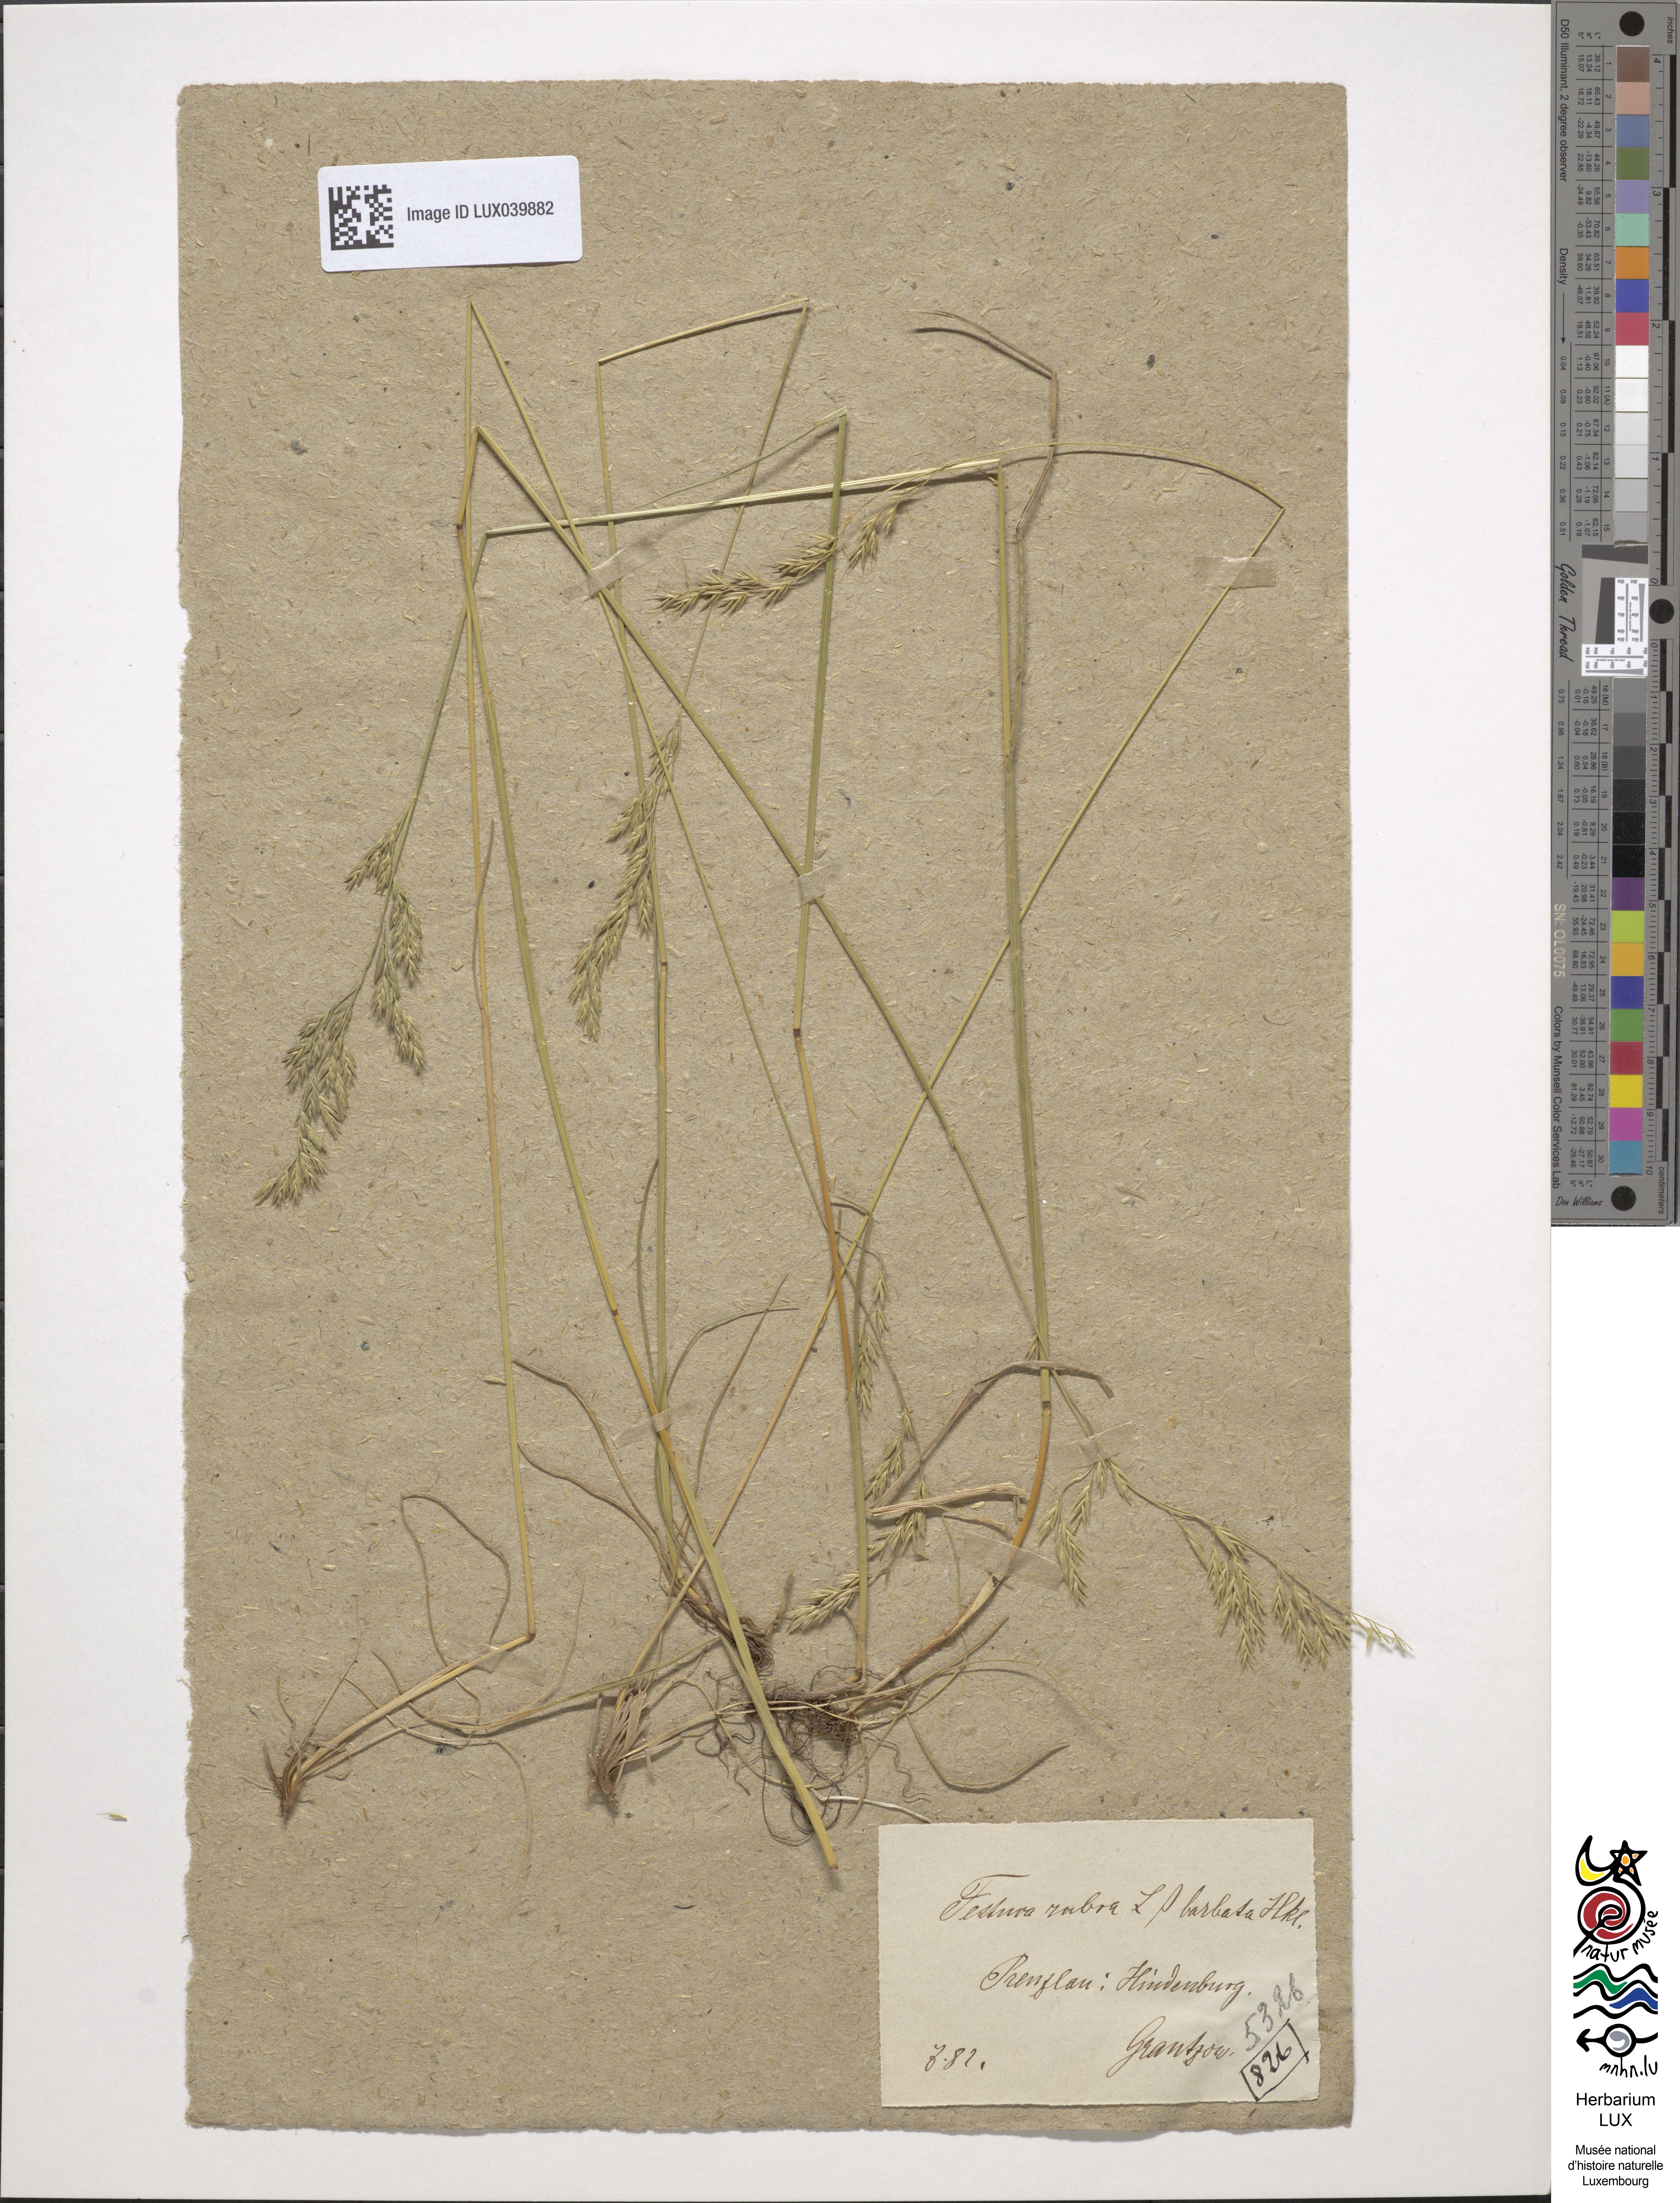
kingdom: Plantae
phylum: Tracheophyta
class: Liliopsida
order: Poales
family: Poaceae
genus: Festuca
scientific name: Festuca rubra
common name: Red fescue
